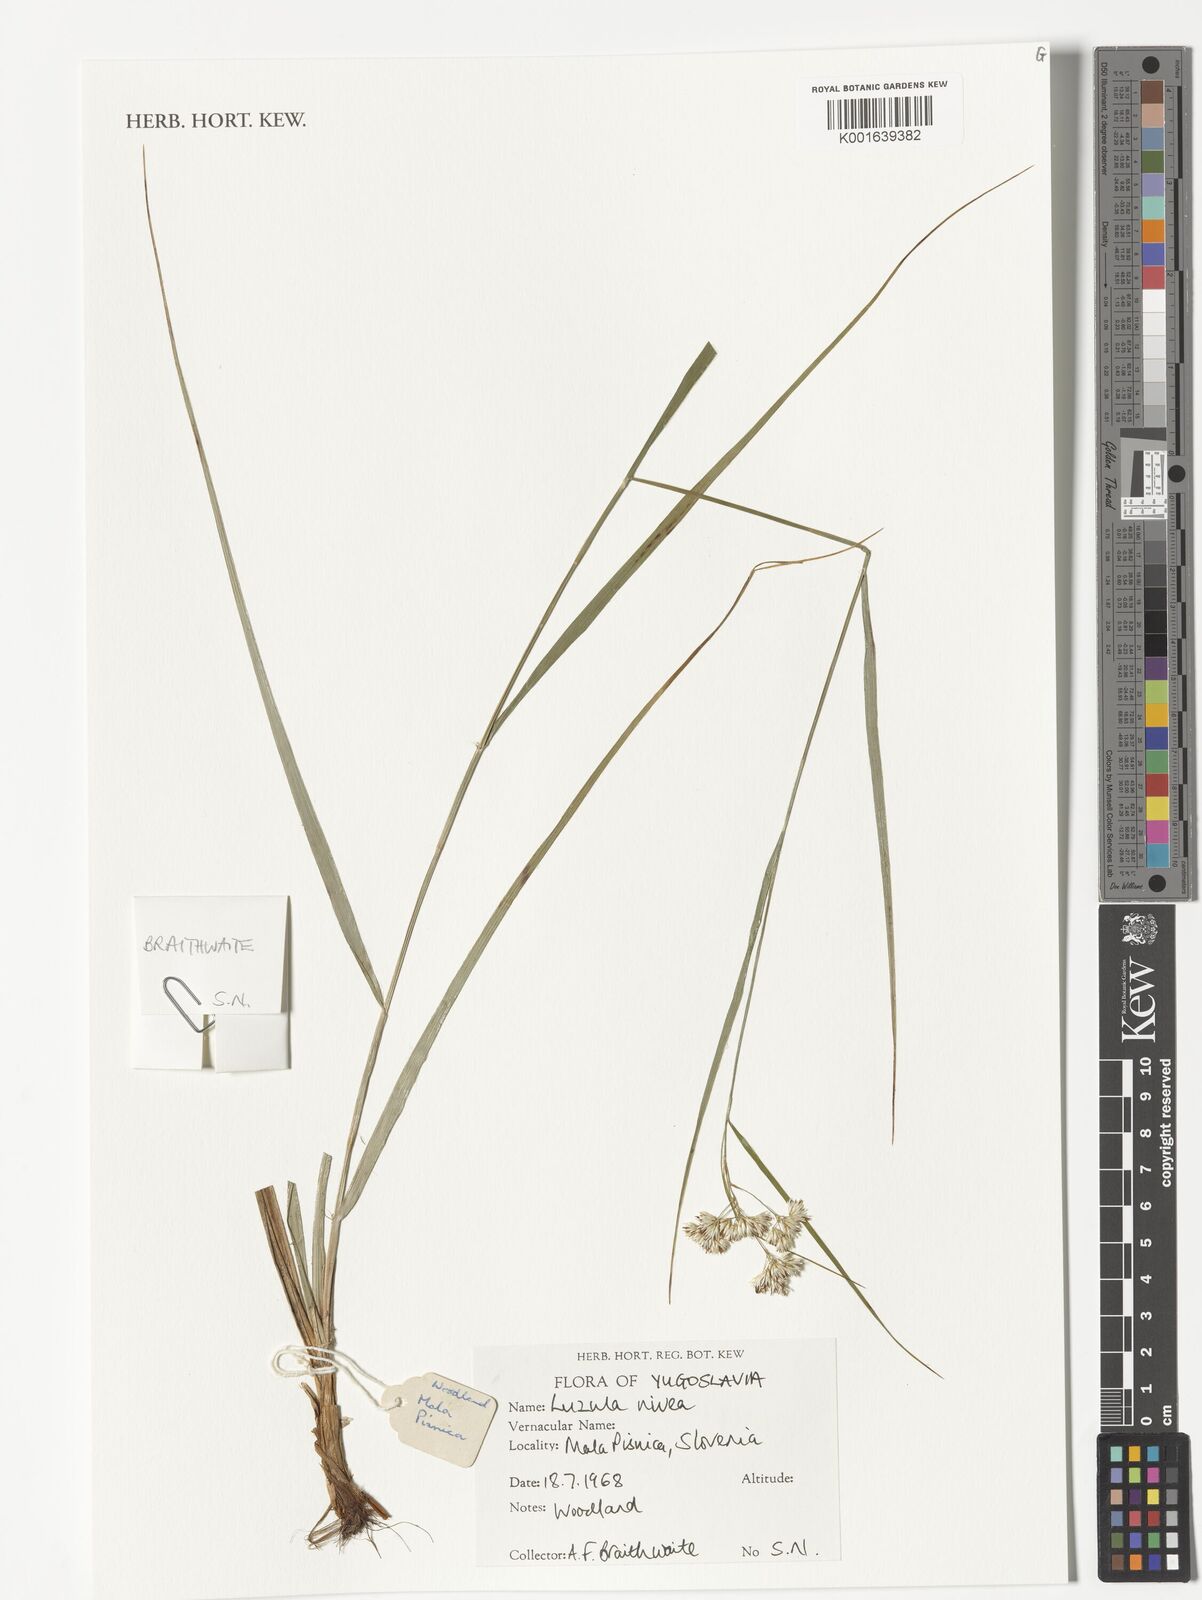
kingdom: Plantae
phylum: Tracheophyta
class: Liliopsida
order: Poales
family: Juncaceae
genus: Luzula
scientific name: Luzula nivea
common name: Snow-white wood-rush
